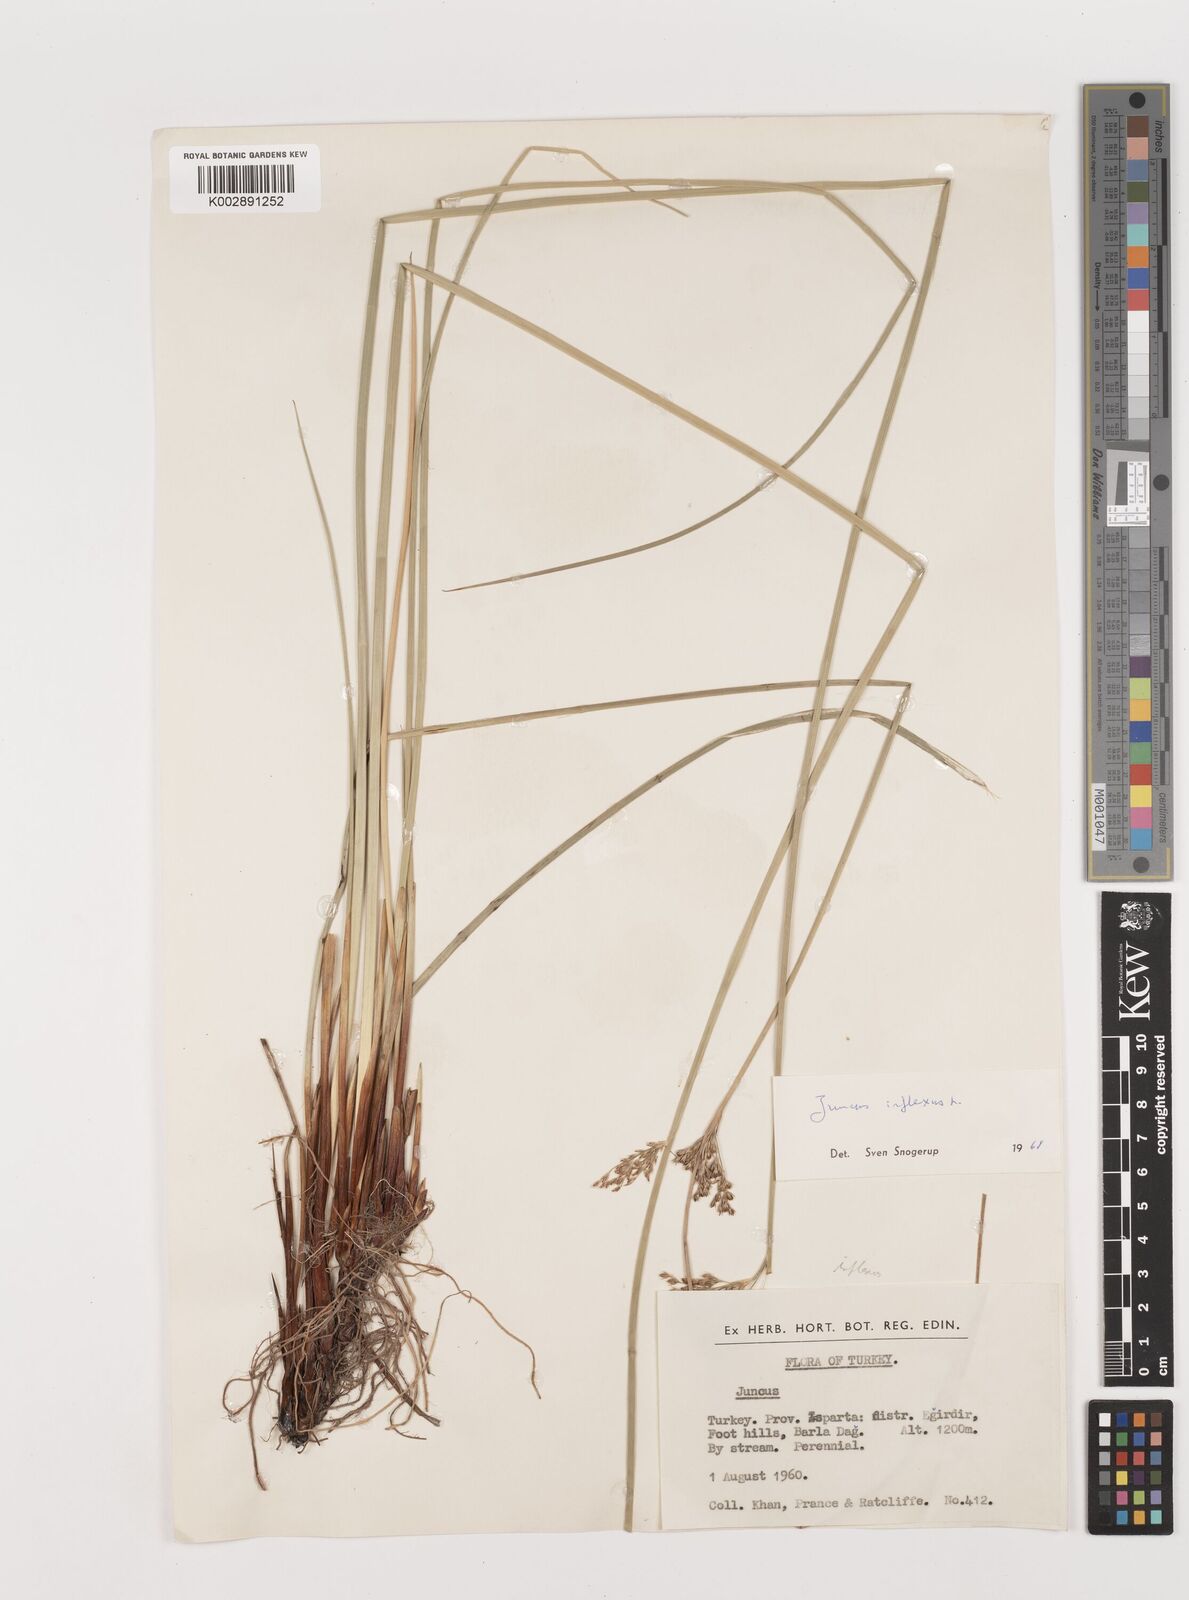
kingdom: Plantae
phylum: Tracheophyta
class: Liliopsida
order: Poales
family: Juncaceae
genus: Juncus
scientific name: Juncus inflexus
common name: Hard rush
